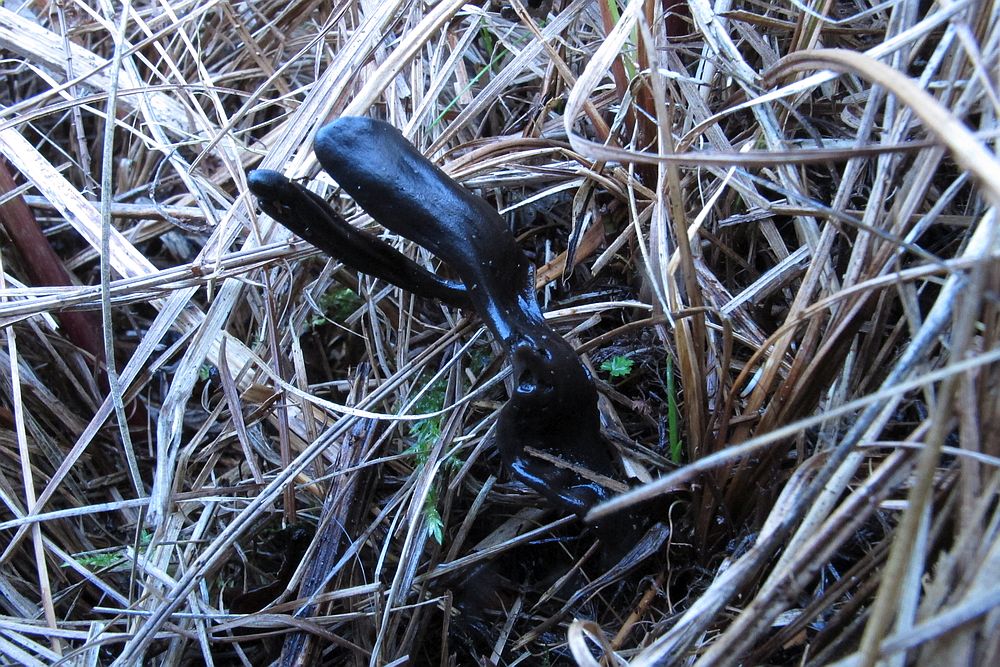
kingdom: Fungi
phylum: Ascomycota
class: Geoglossomycetes
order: Geoglossales
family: Geoglossaceae
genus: Glutinoglossum
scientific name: Glutinoglossum glutinosum
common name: slimet jordtunge
